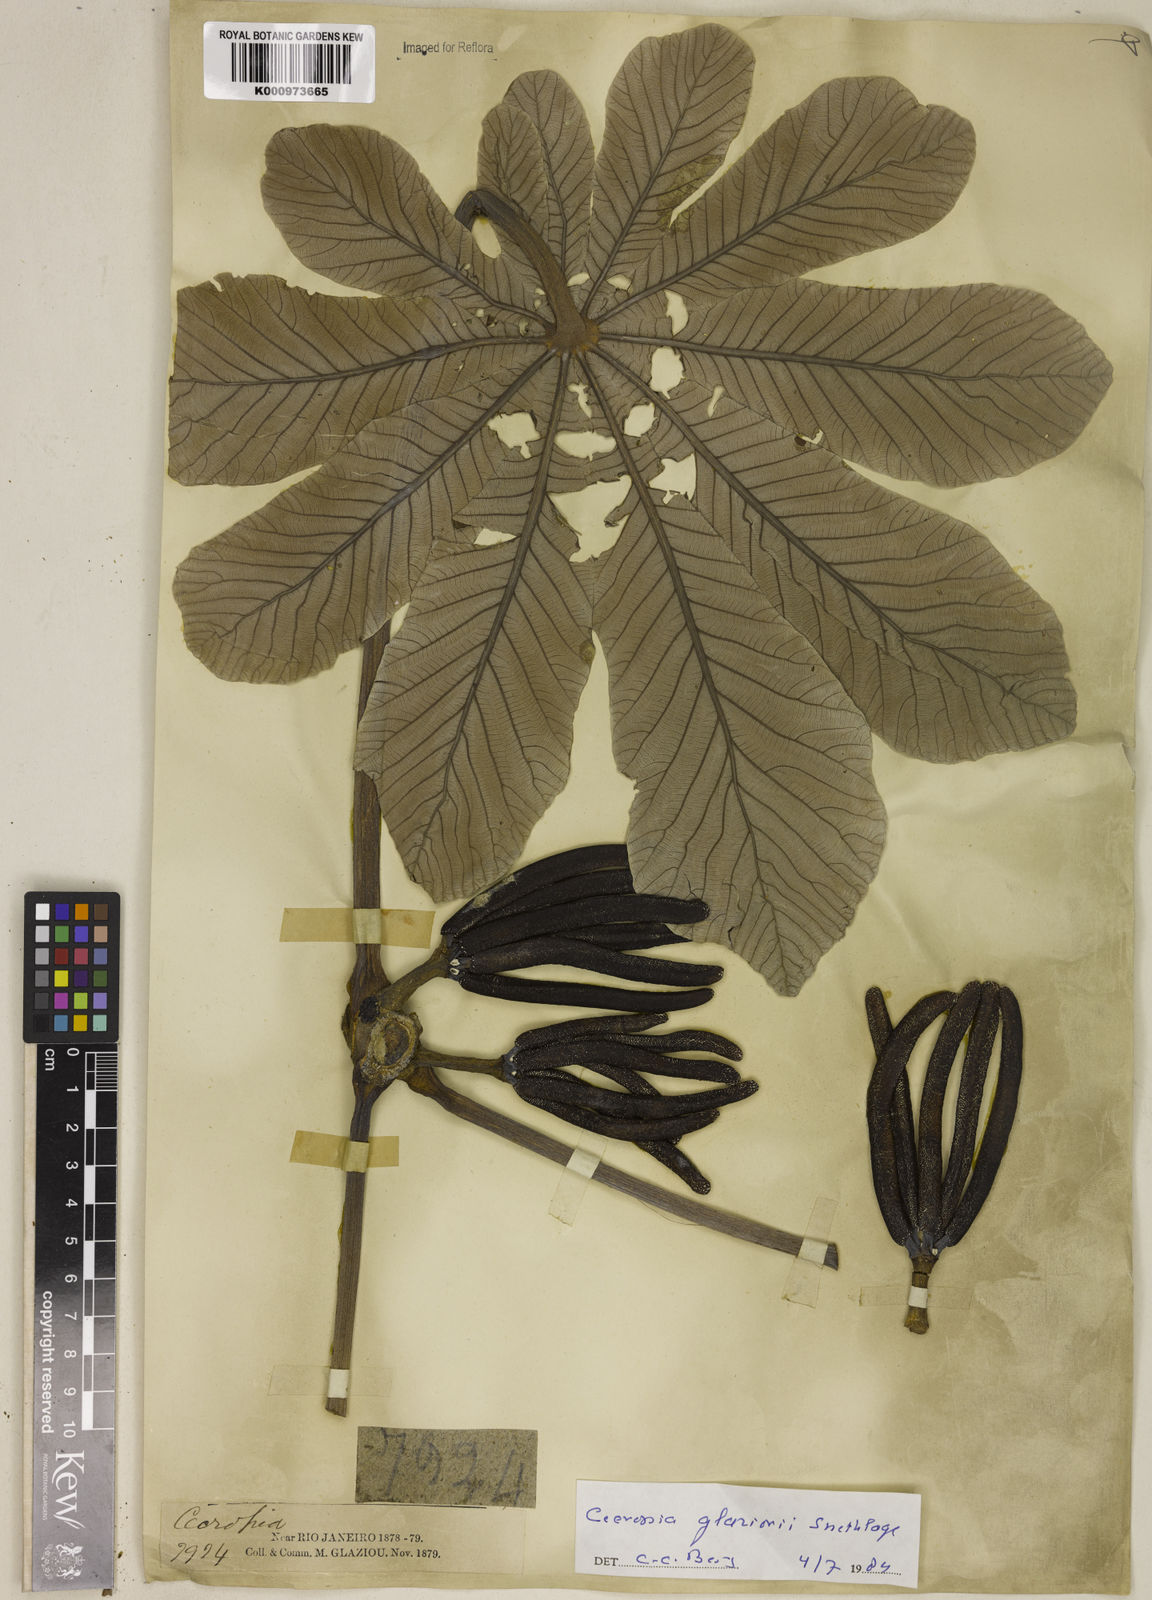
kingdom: Plantae
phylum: Tracheophyta
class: Magnoliopsida
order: Rosales
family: Urticaceae
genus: Cecropia
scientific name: Cecropia glaziovii
